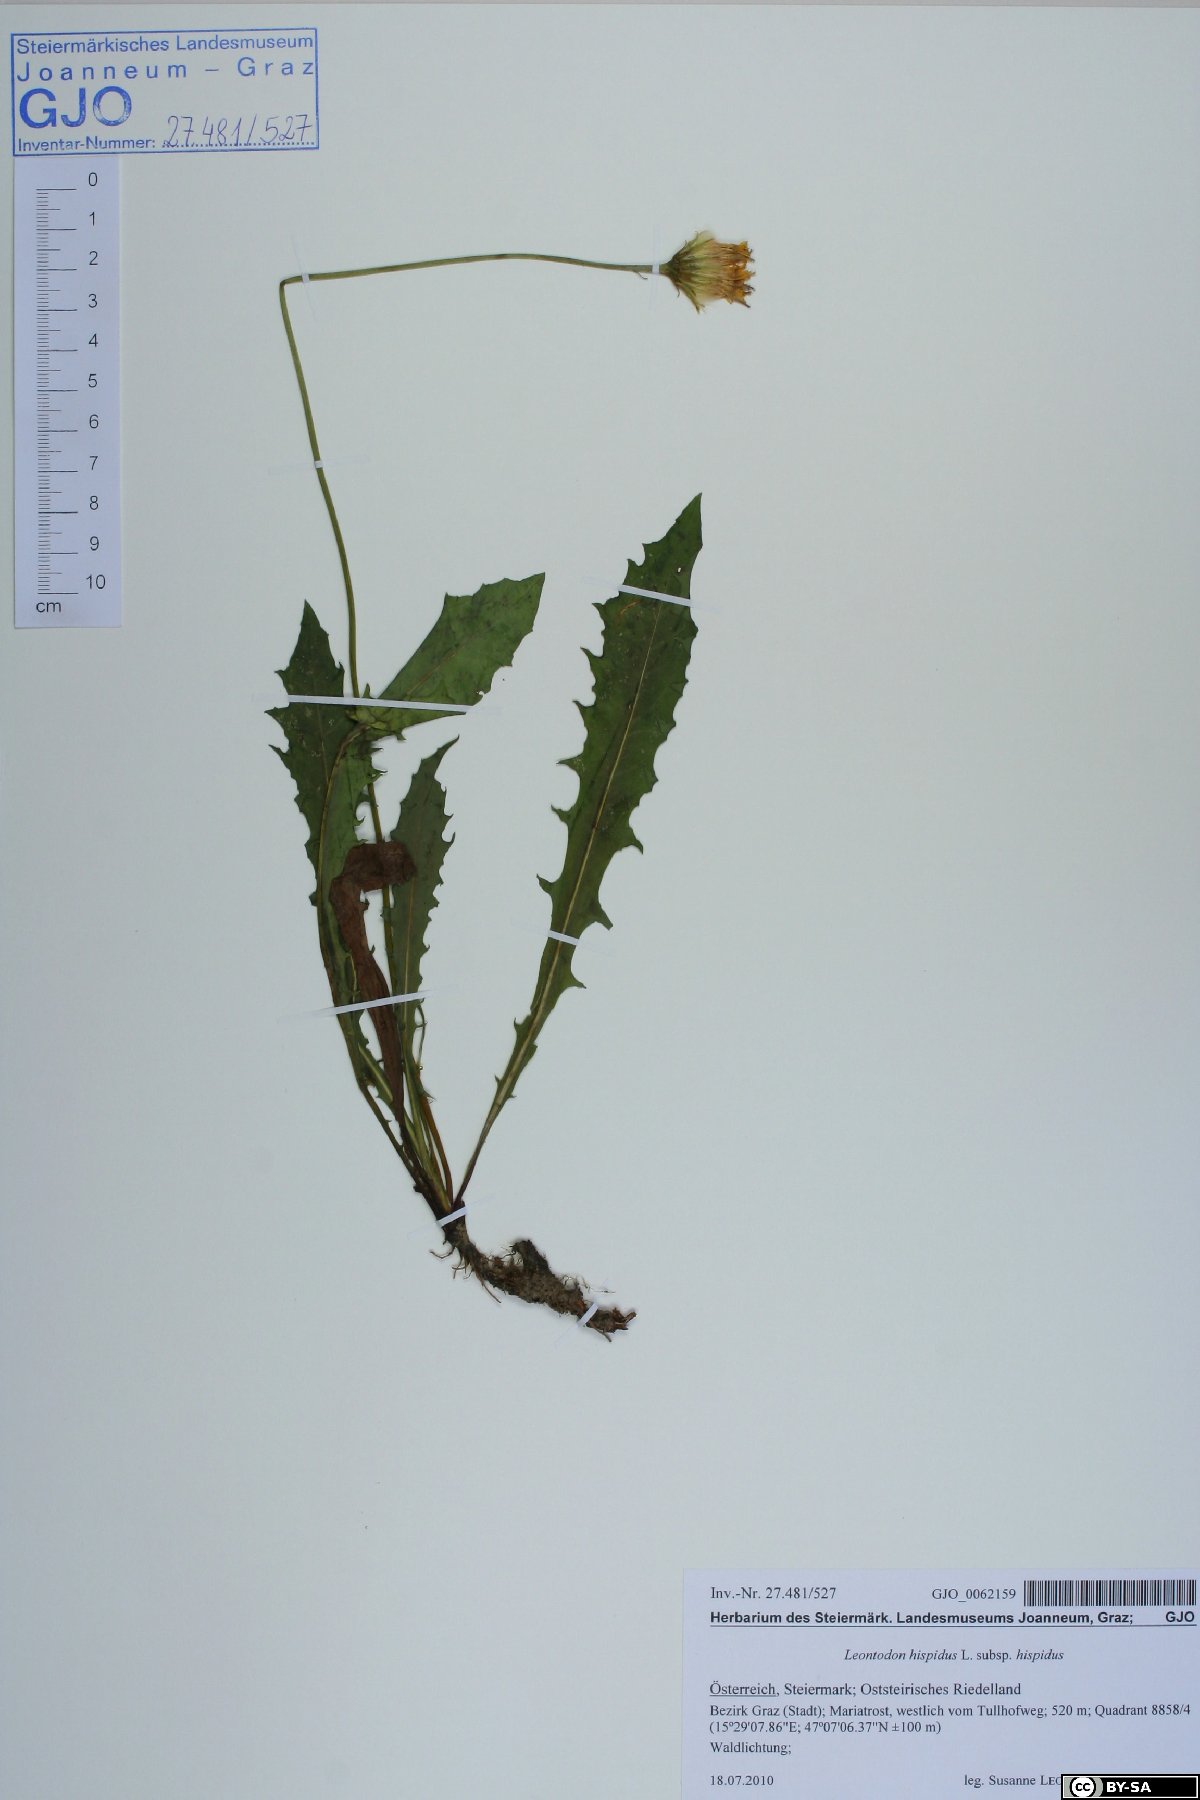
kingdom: Plantae
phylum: Tracheophyta
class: Magnoliopsida
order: Asterales
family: Asteraceae
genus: Leontodon
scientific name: Leontodon hispidus
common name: Rough hawkbit
